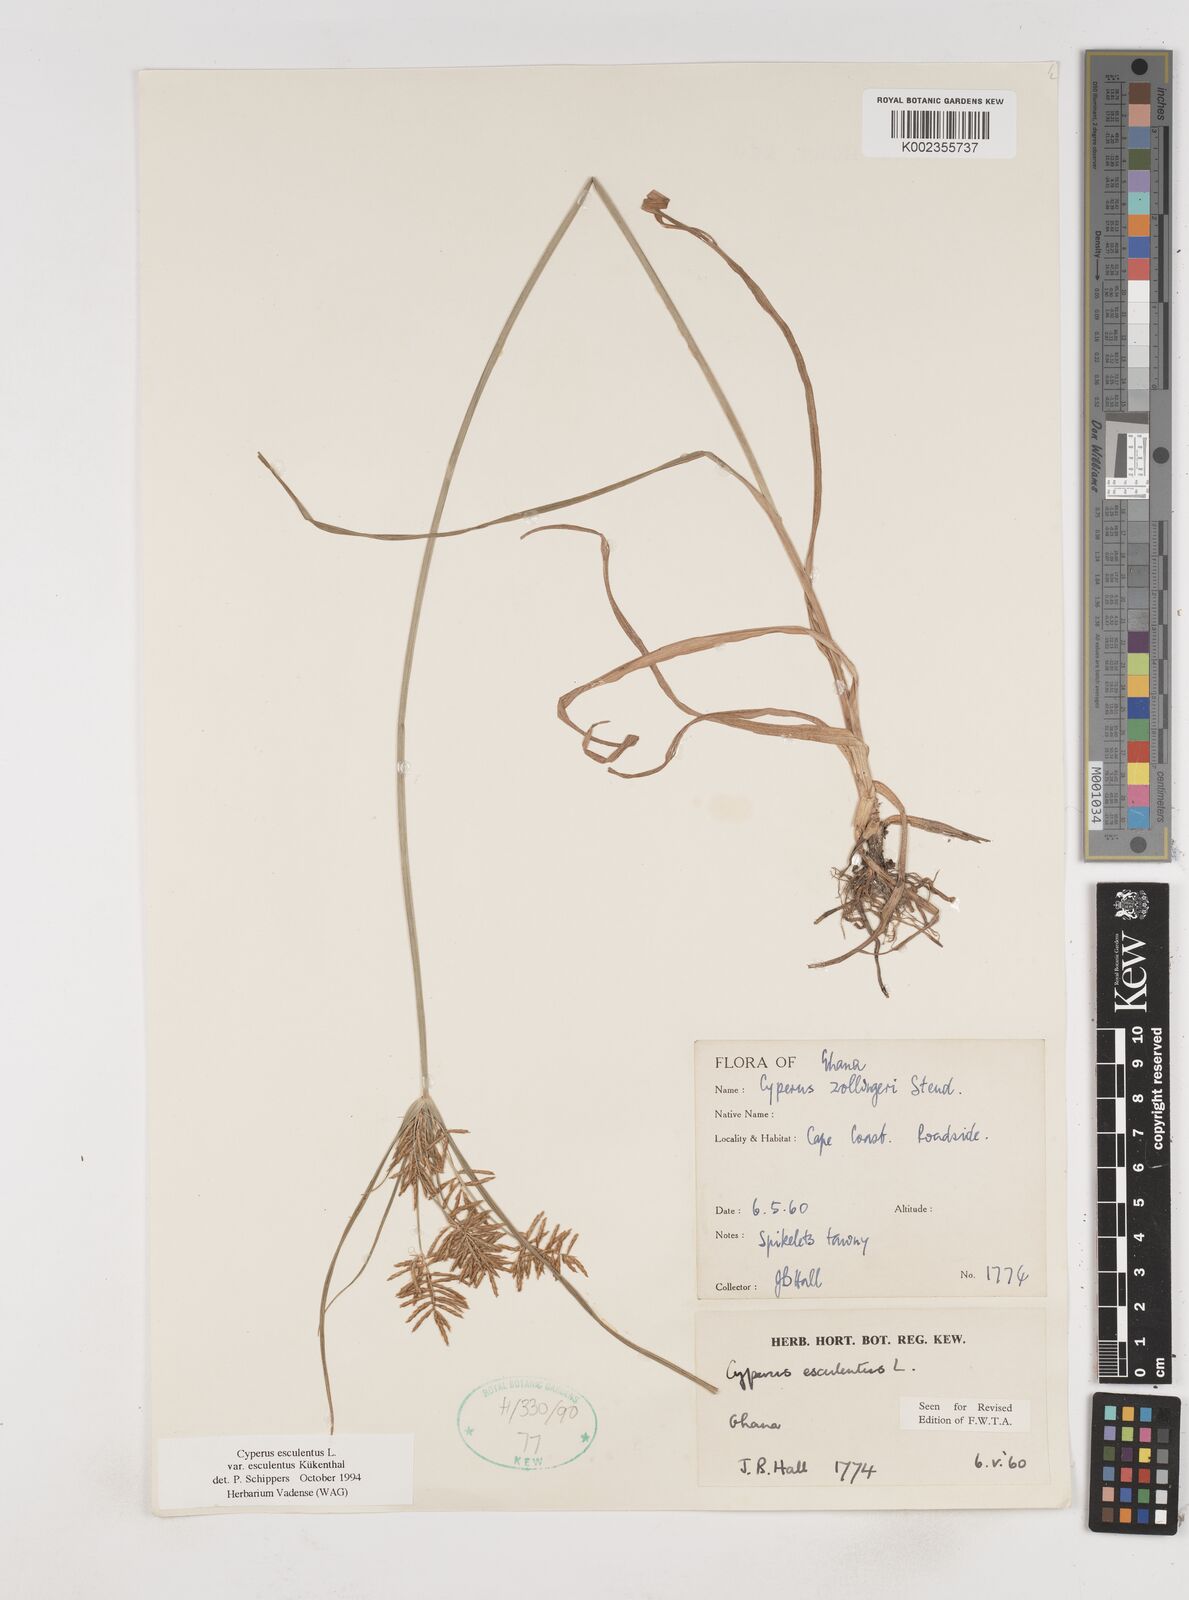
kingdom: Plantae
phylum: Tracheophyta
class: Liliopsida
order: Poales
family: Cyperaceae
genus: Cyperus
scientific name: Cyperus esculentus
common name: Yellow nutsedge
